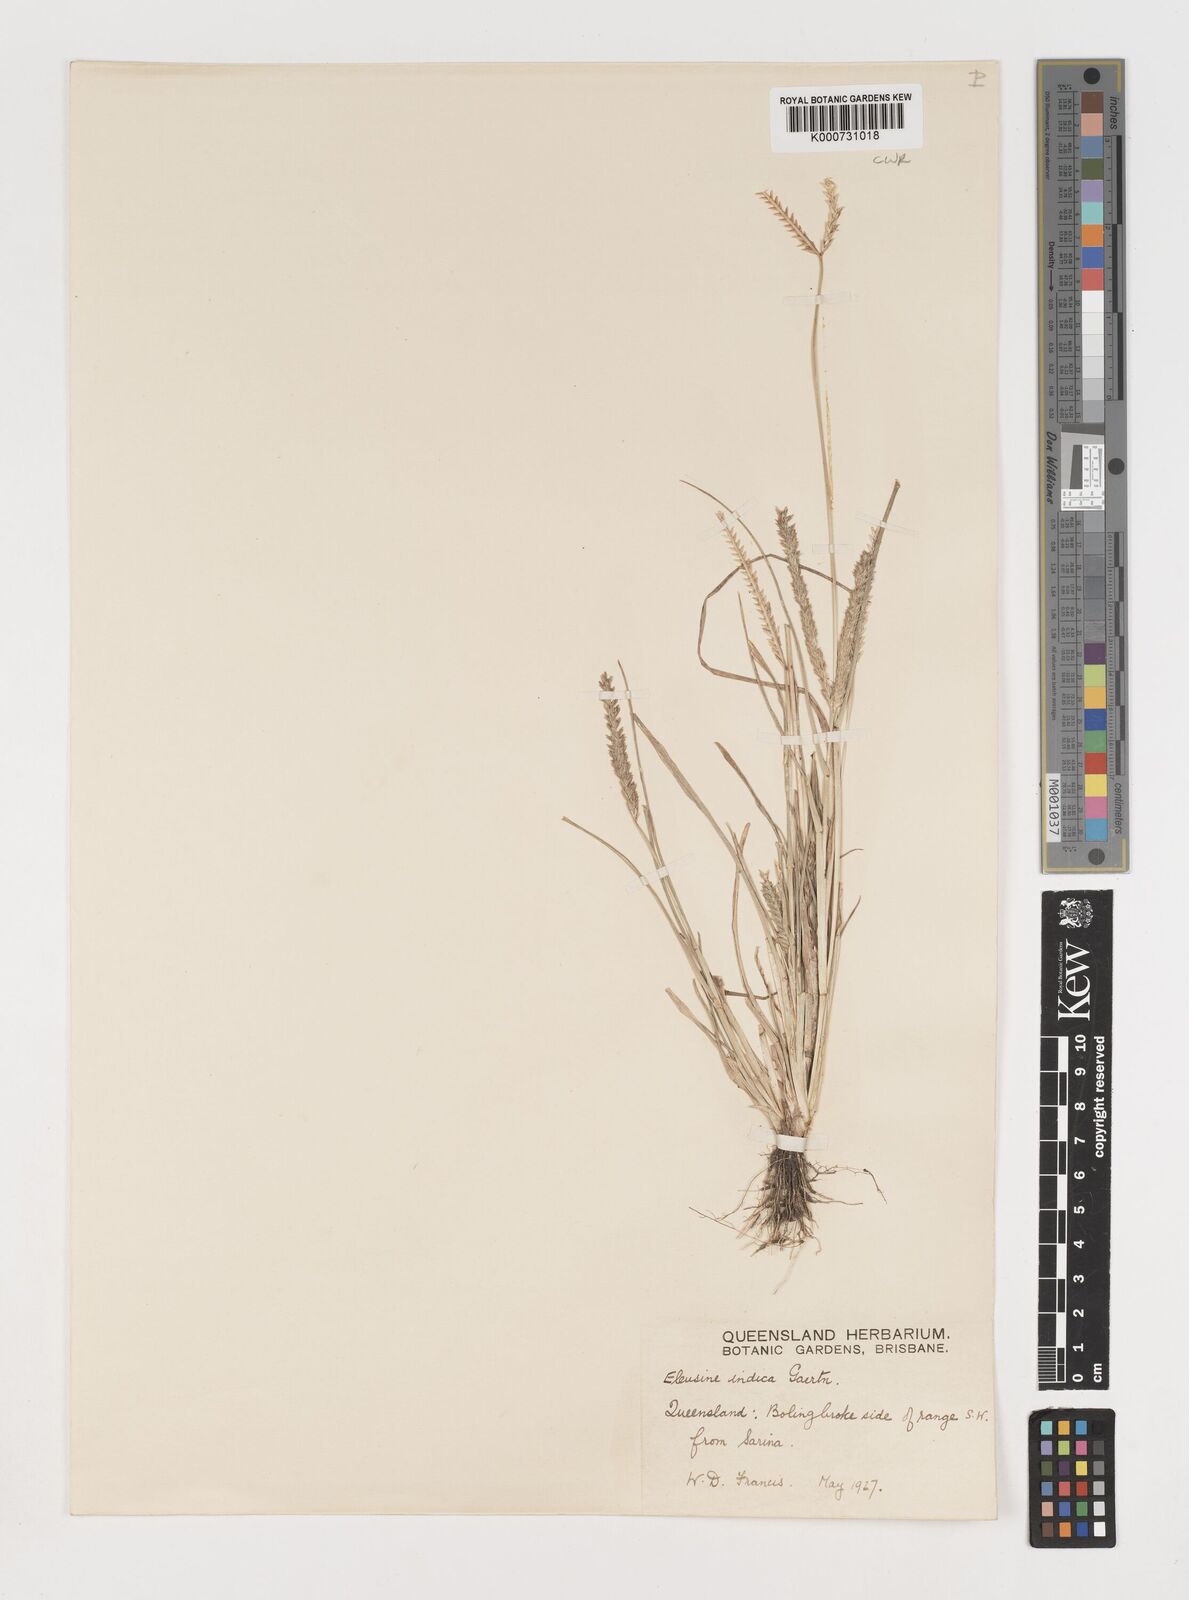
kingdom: Plantae
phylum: Tracheophyta
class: Liliopsida
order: Poales
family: Poaceae
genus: Eleusine
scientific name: Eleusine indica
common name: Yard-grass
